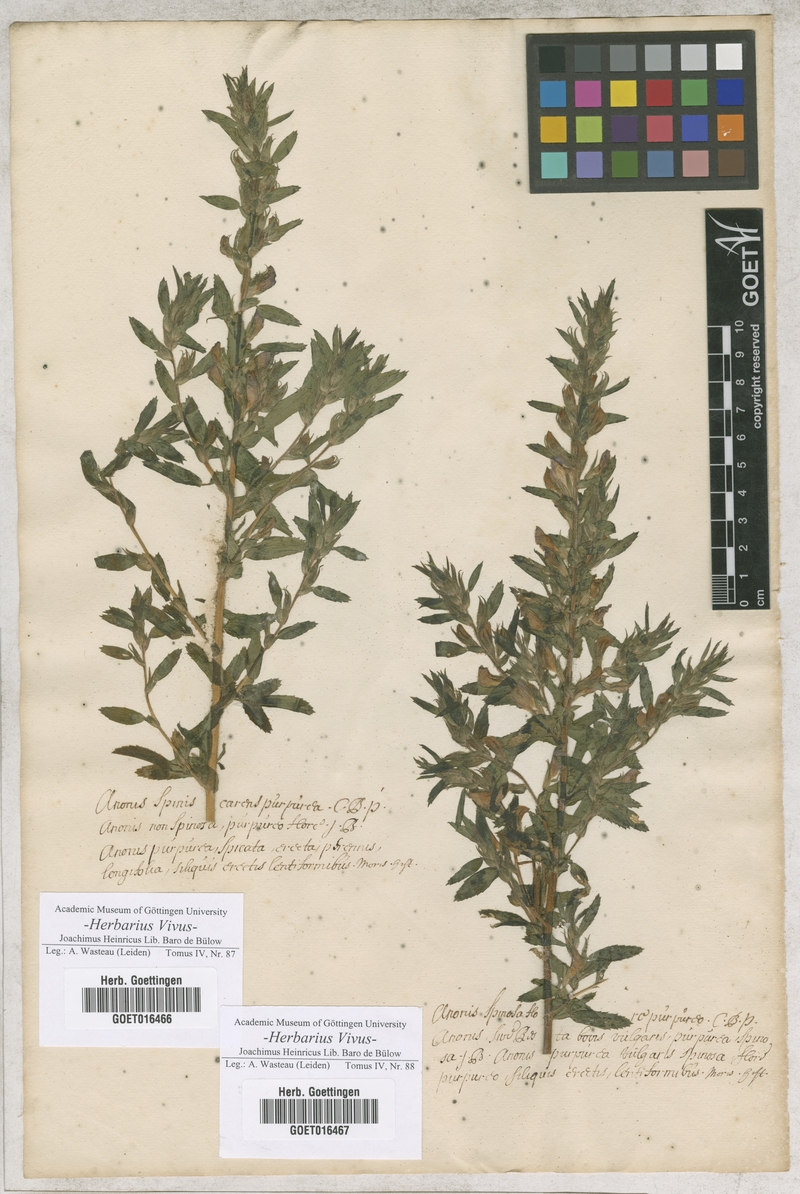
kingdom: Plantae
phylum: Tracheophyta
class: Magnoliopsida
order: Fabales
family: Fabaceae
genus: Ononis
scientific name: Ononis spinosa
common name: Spiny restharrow
